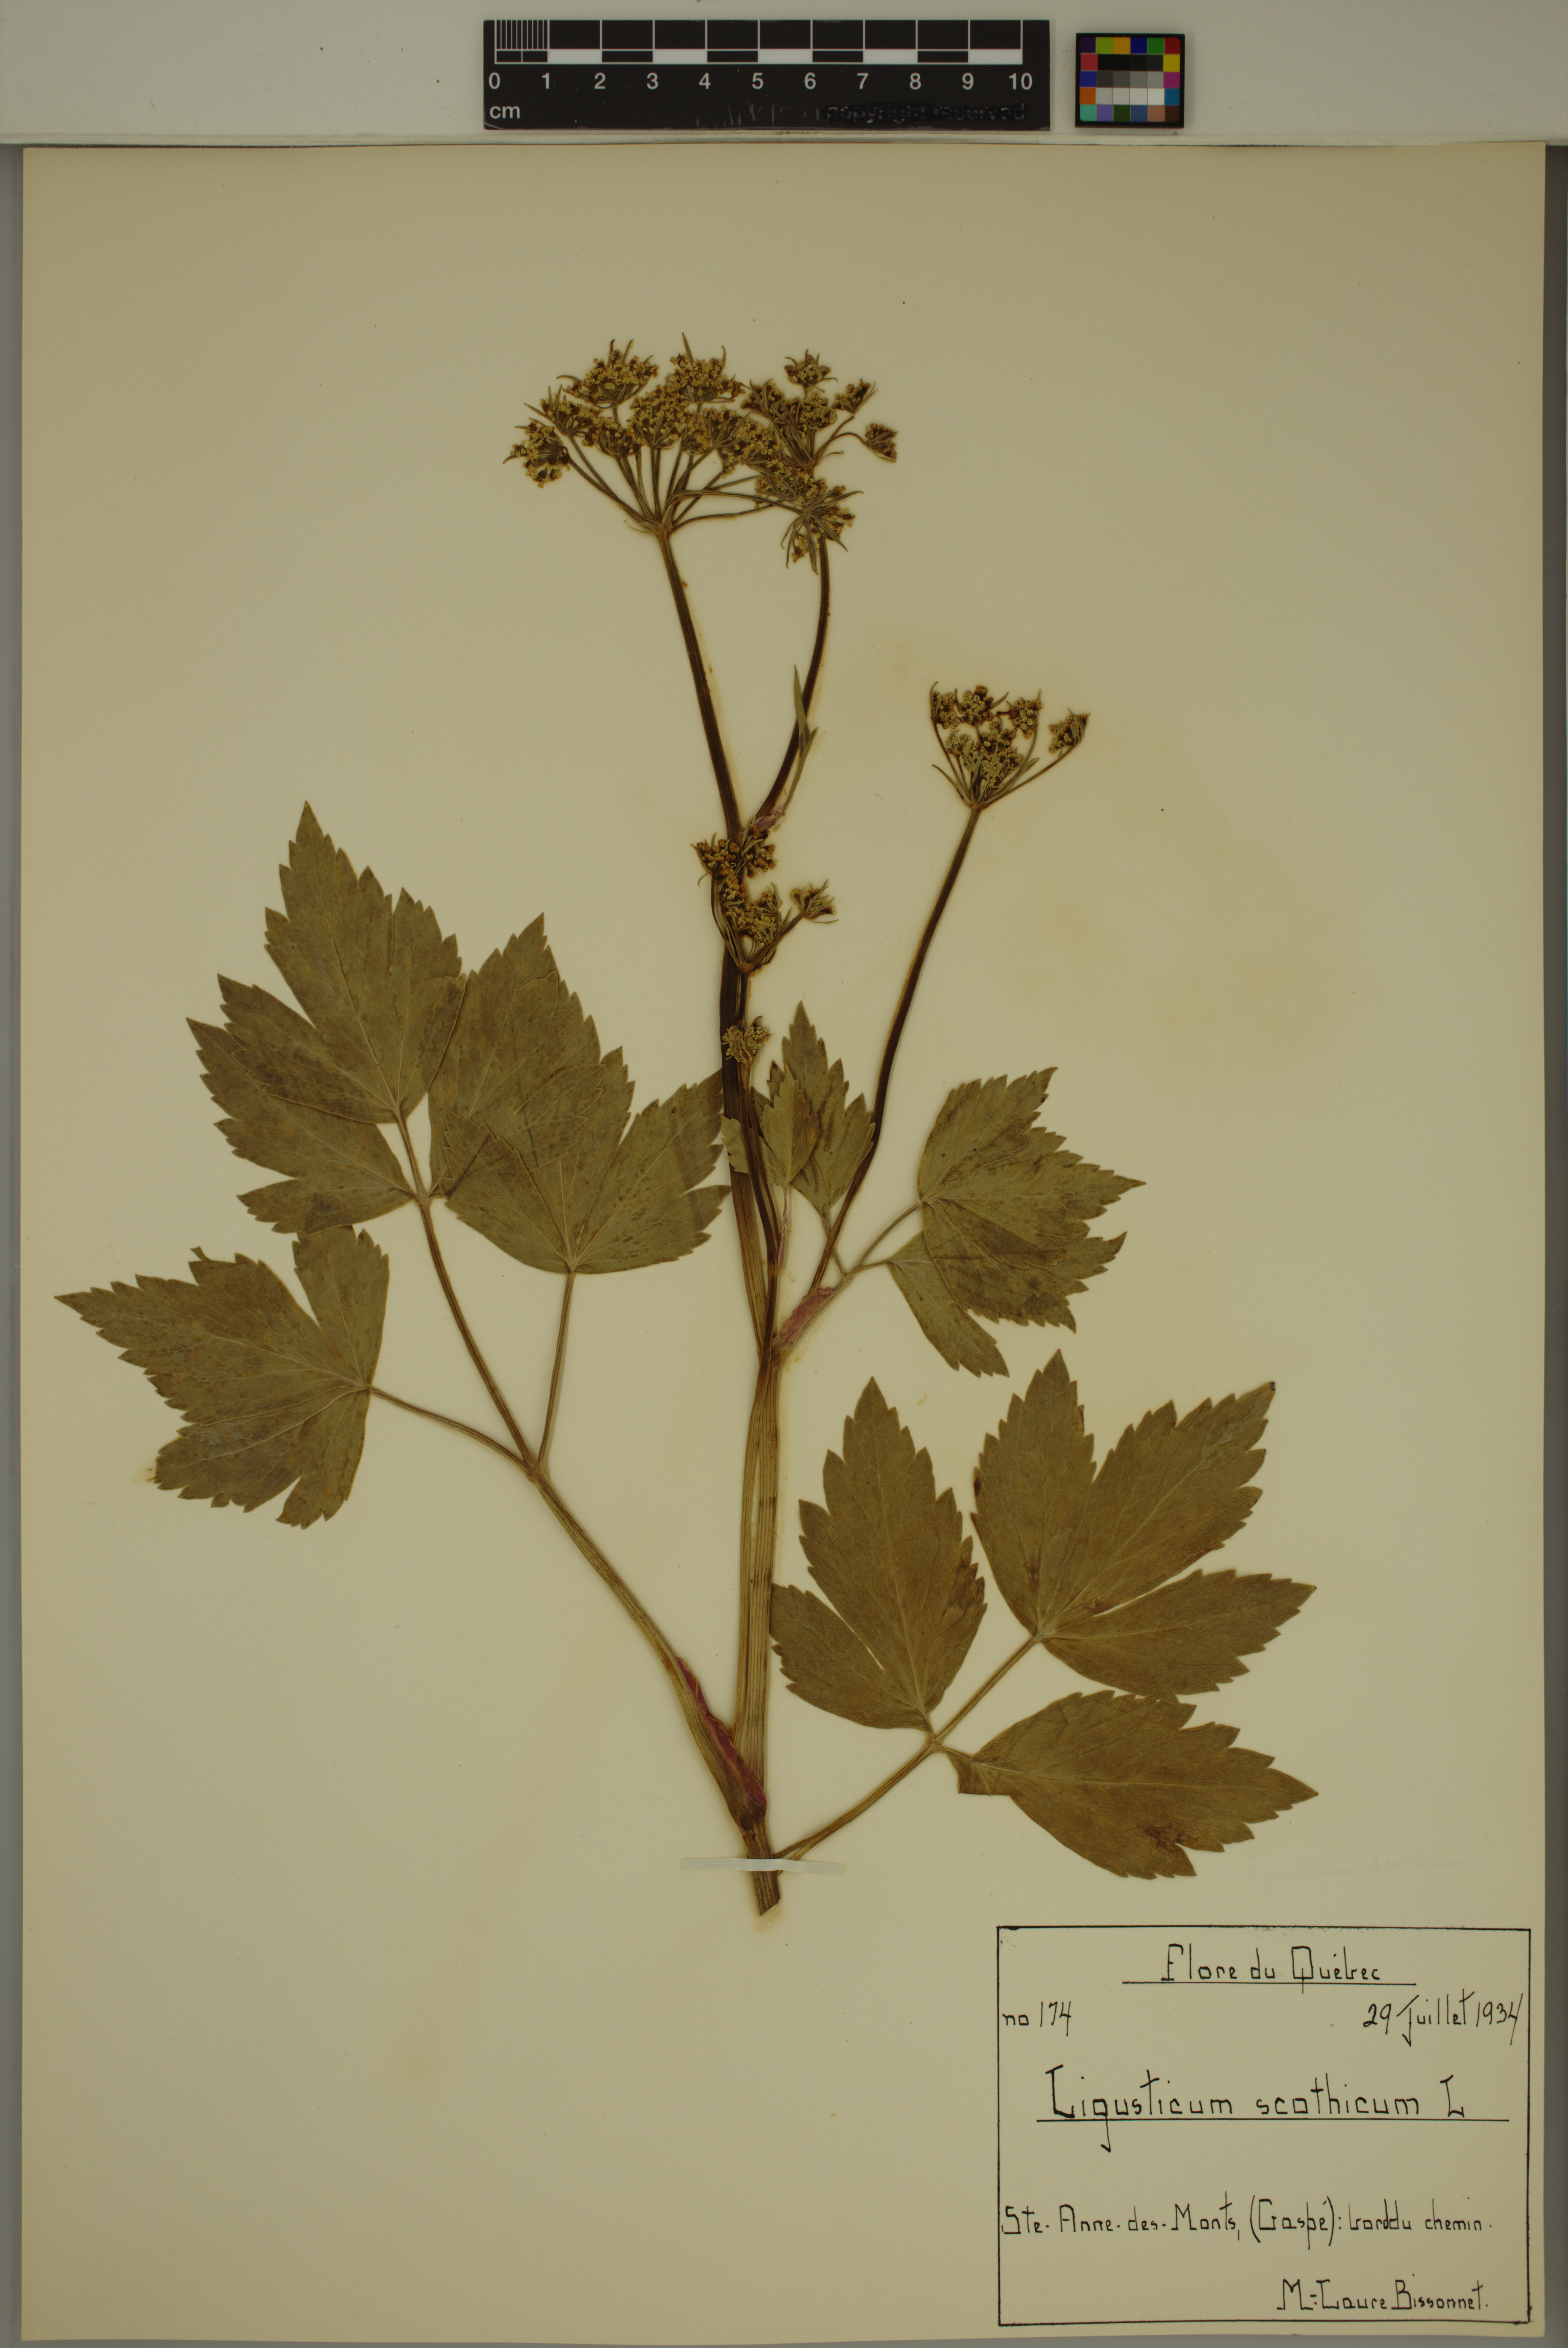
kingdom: Plantae
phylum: Tracheophyta
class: Magnoliopsida
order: Apiales
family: Apiaceae
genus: Ligusticum
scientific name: Ligusticum scothicum
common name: Beach lovage
